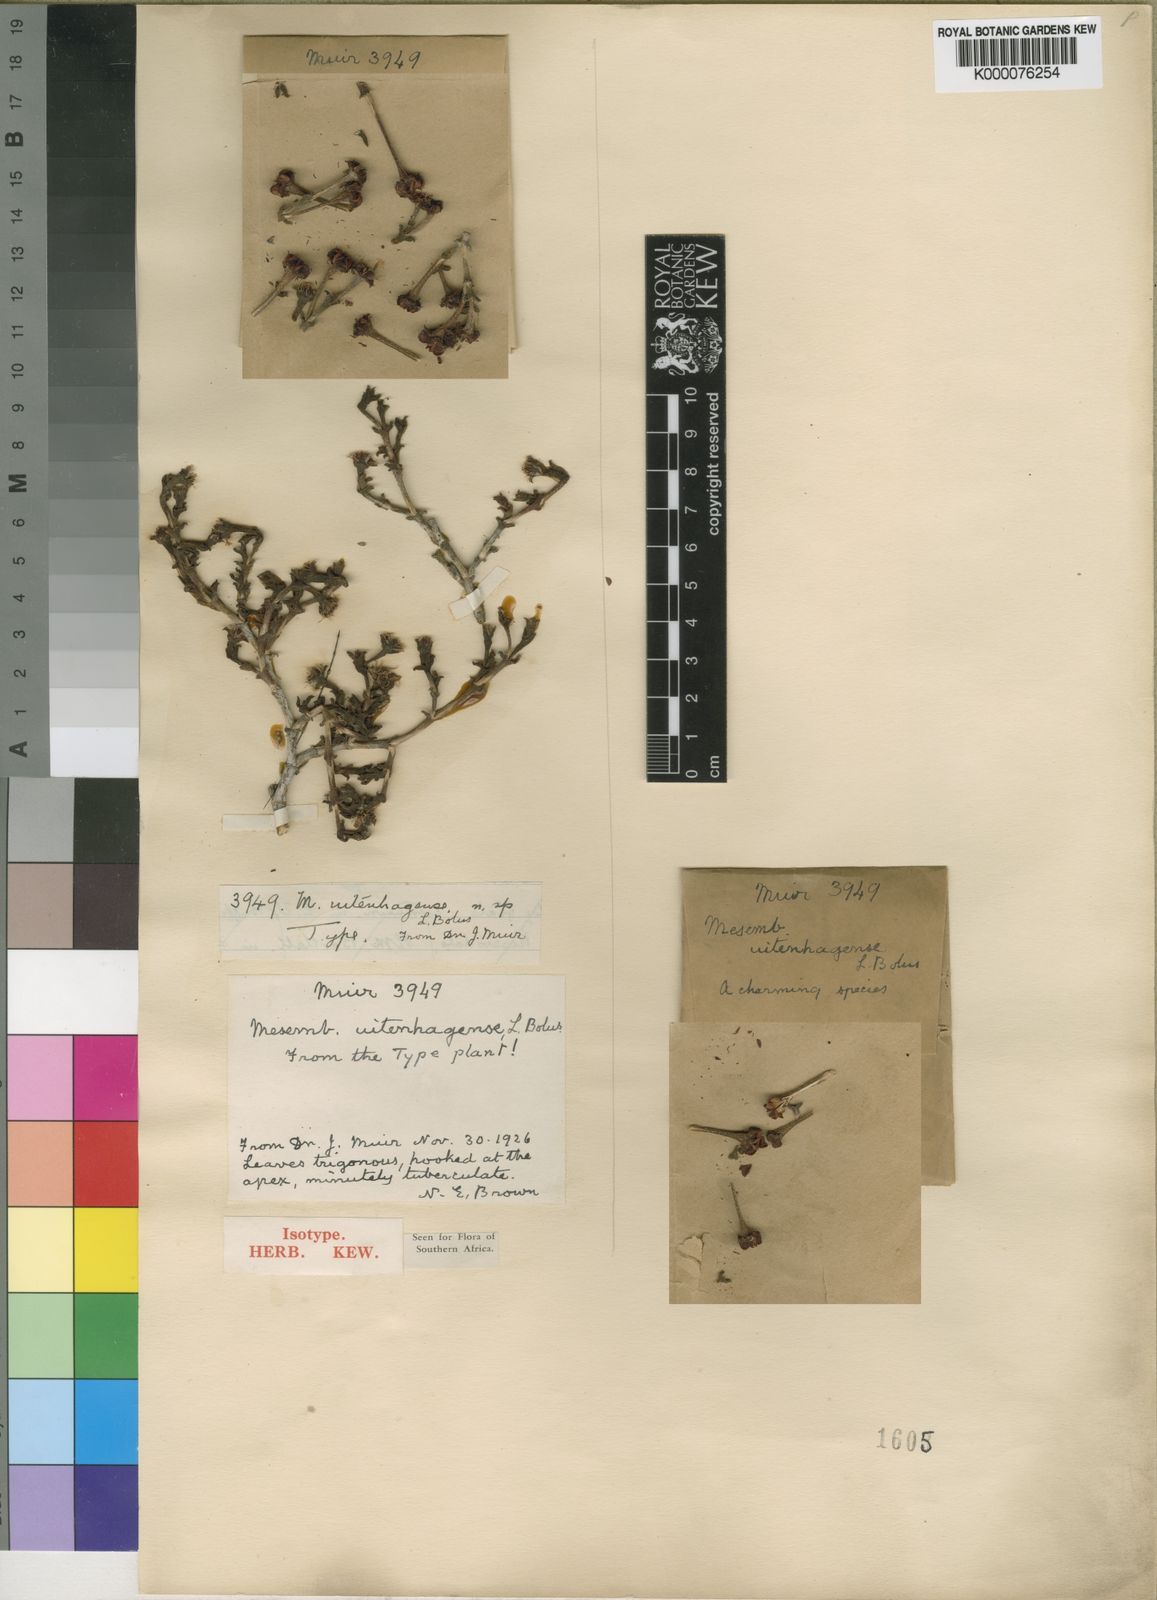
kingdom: Plantae
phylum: Tracheophyta
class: Magnoliopsida
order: Caryophyllales
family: Aizoaceae
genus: Ruschia
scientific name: Ruschia uitenhagensis
